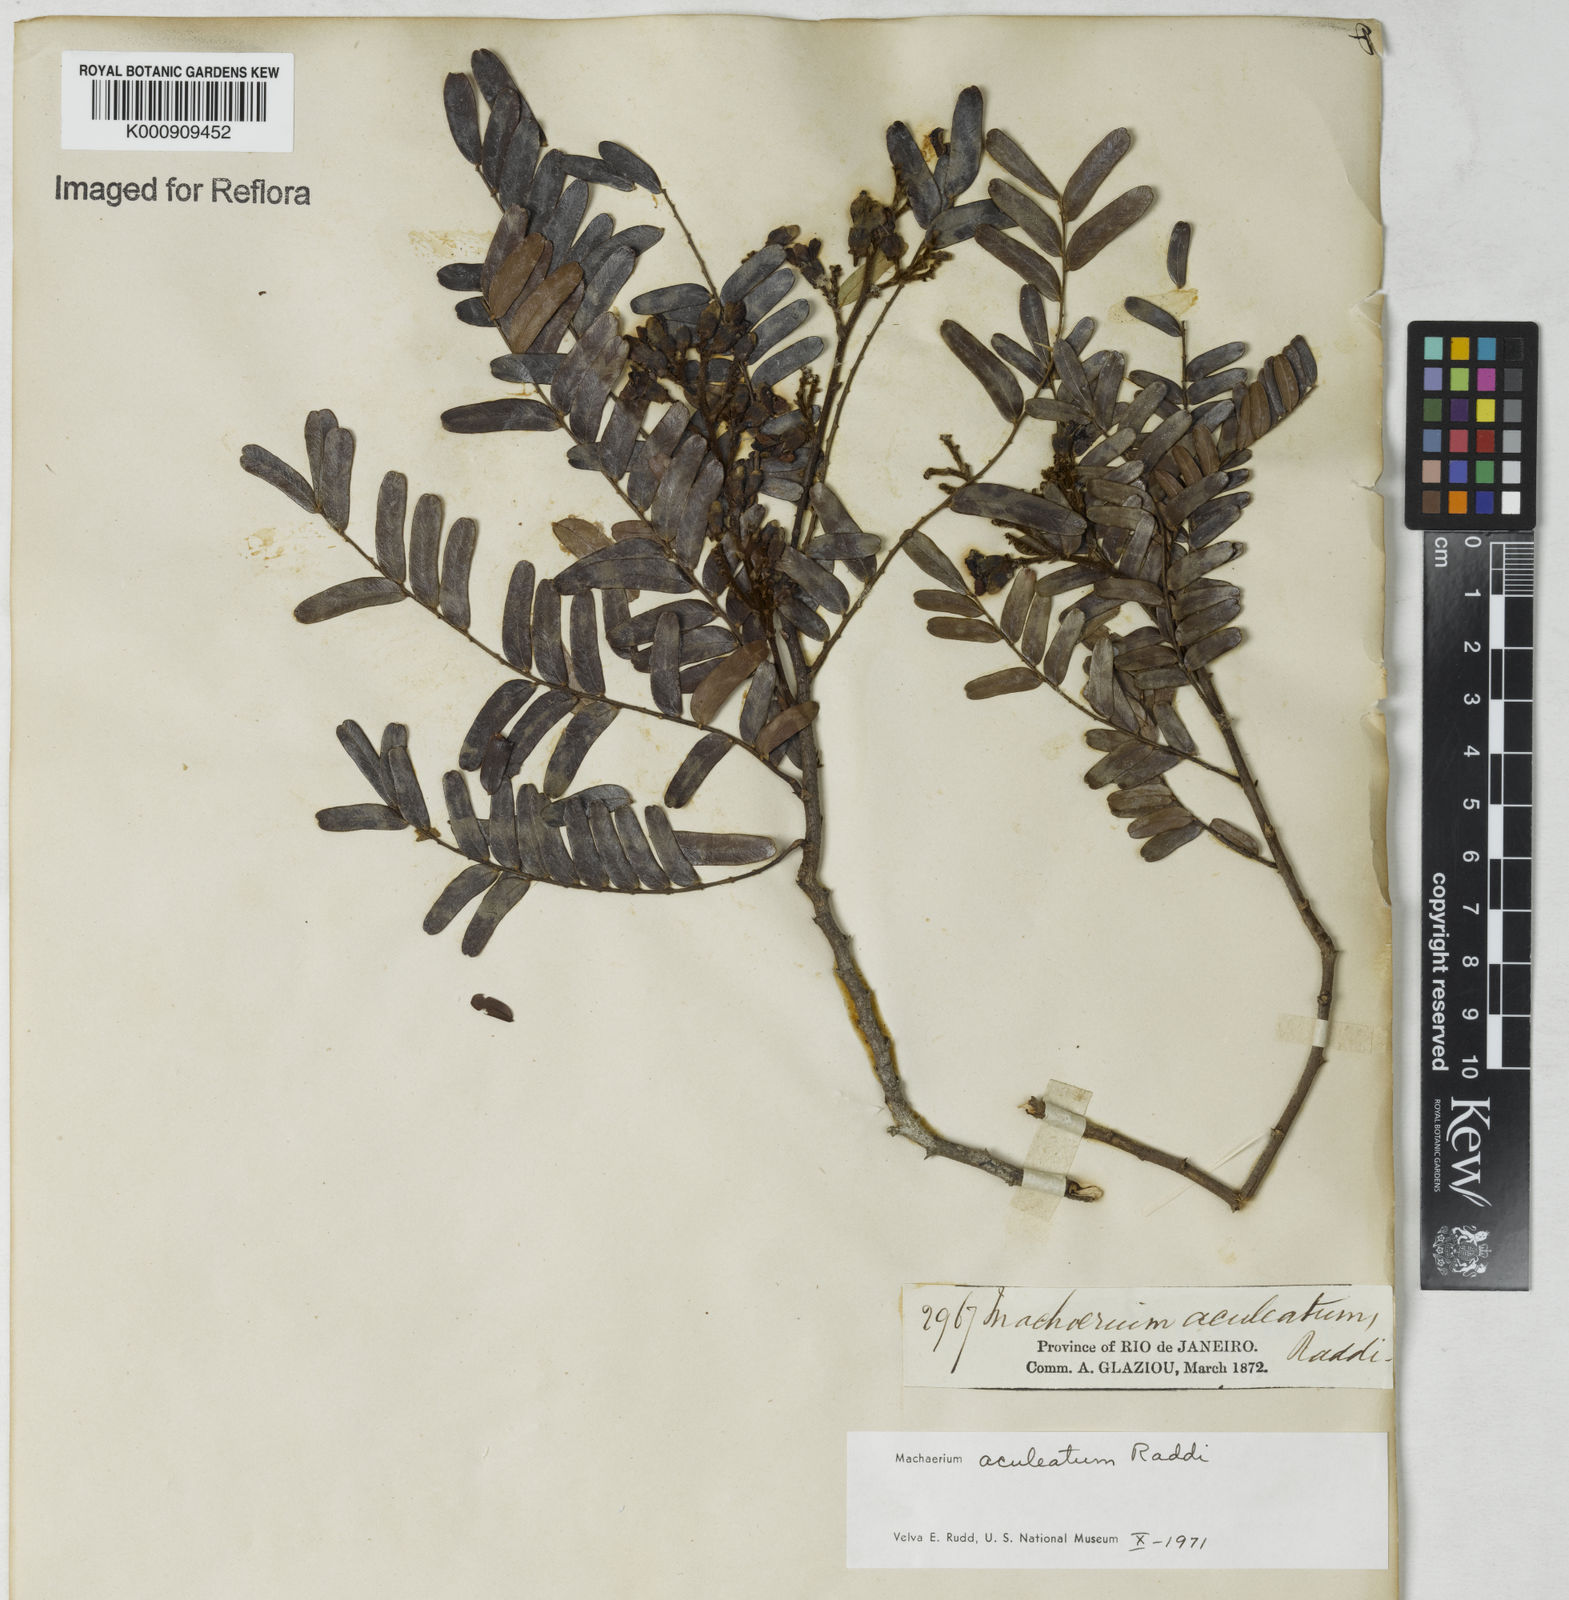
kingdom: Plantae
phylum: Tracheophyta
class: Magnoliopsida
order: Fabales
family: Fabaceae
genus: Machaerium
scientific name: Machaerium aculeatum
